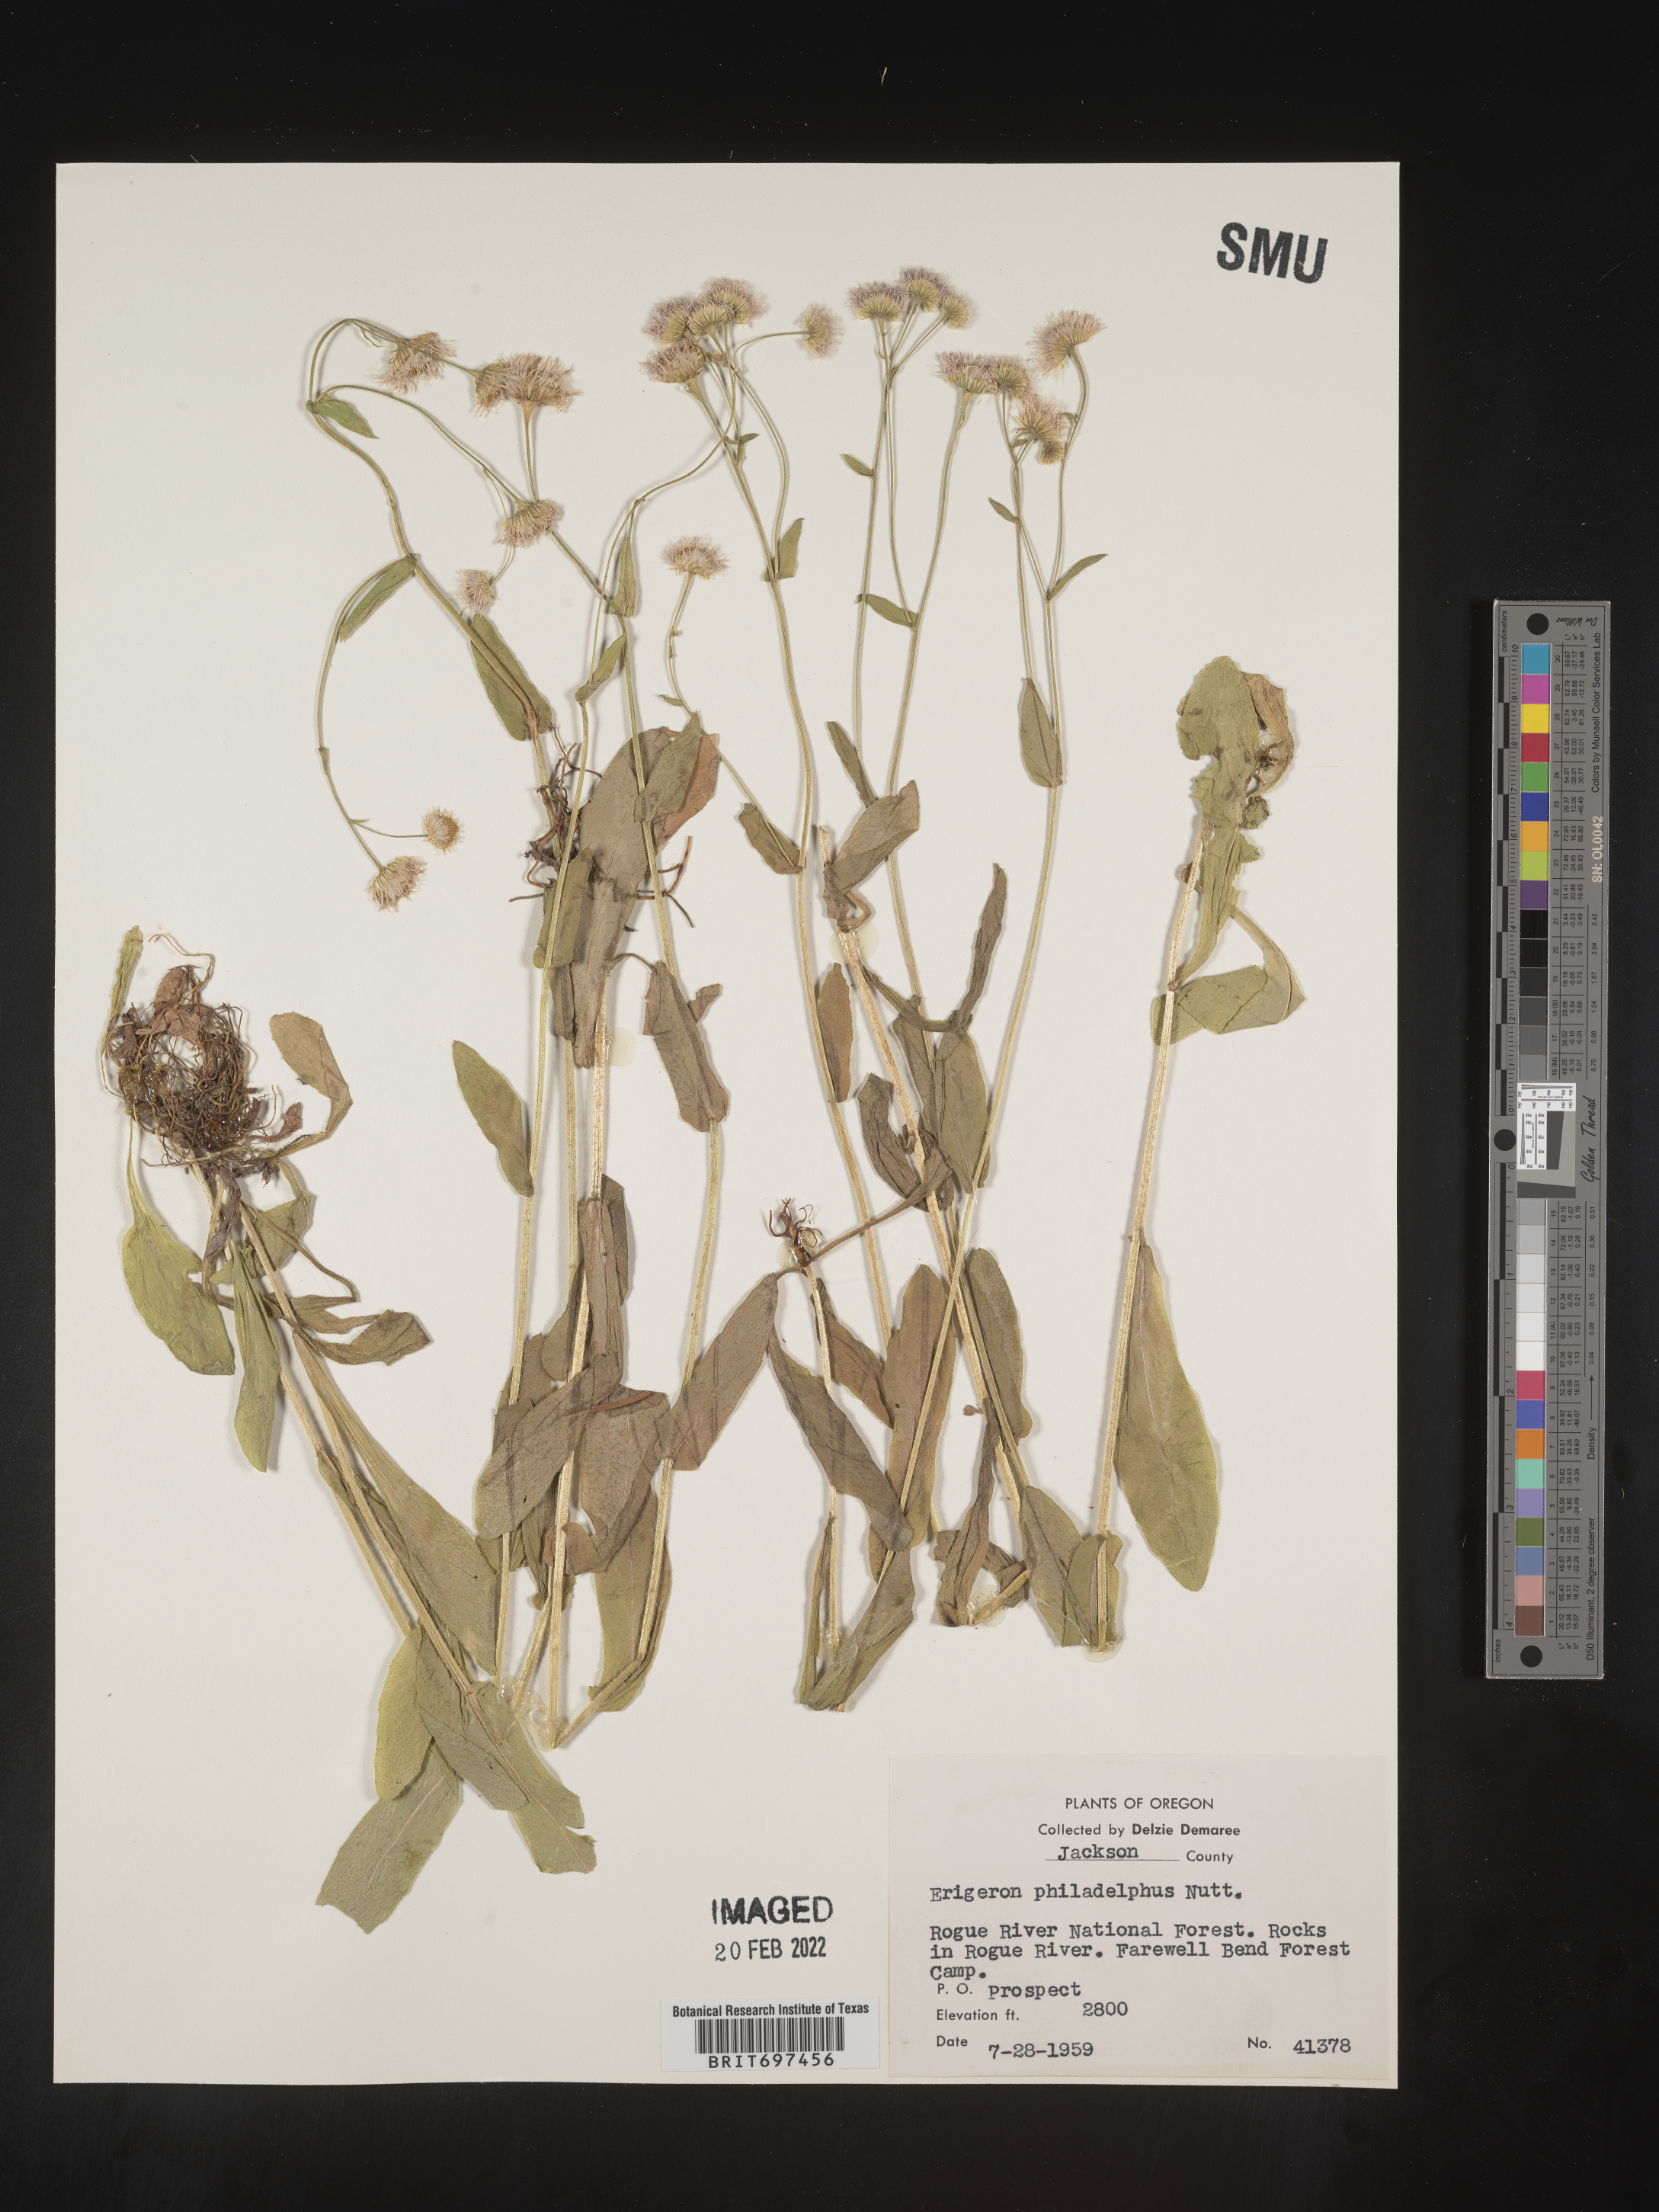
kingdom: Plantae
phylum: Tracheophyta
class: Magnoliopsida
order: Asterales
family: Asteraceae
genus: Erigeron
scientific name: Erigeron philadelphicus
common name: Robin's-plantain
